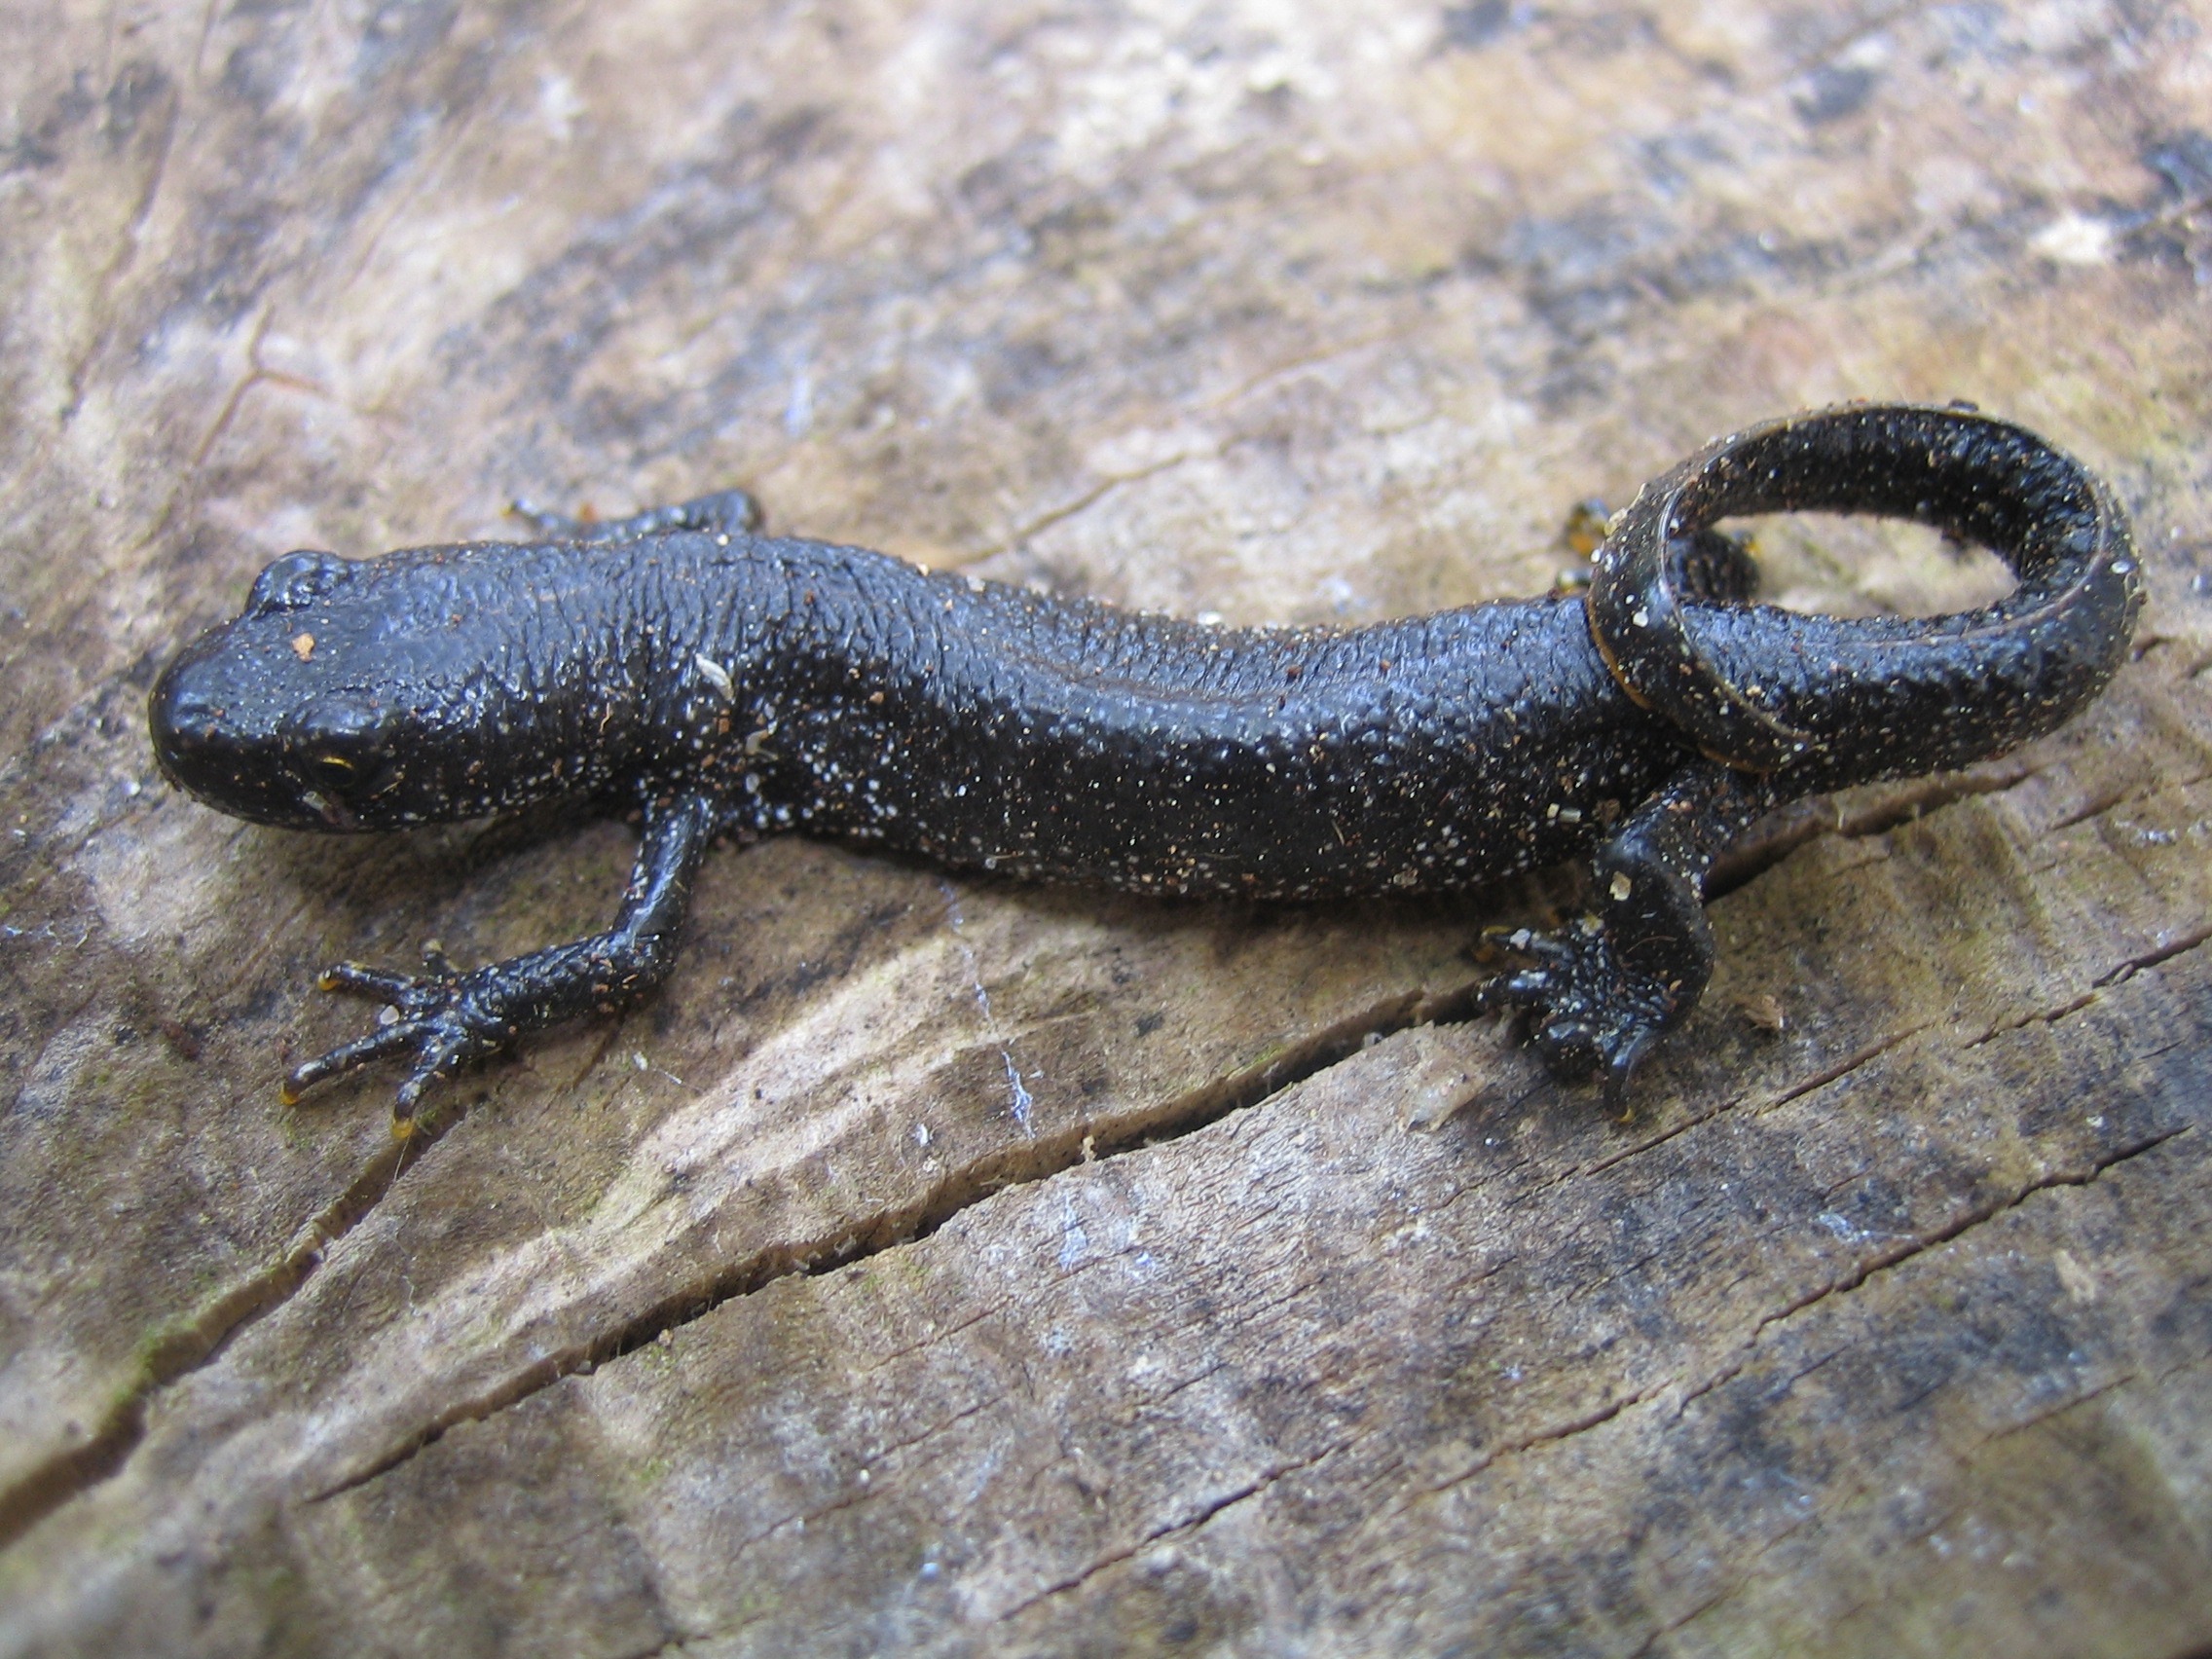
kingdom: Animalia
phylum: Chordata
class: Amphibia
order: Caudata
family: Salamandridae
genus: Triturus
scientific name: Triturus cristatus
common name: Stor vandsalamander
